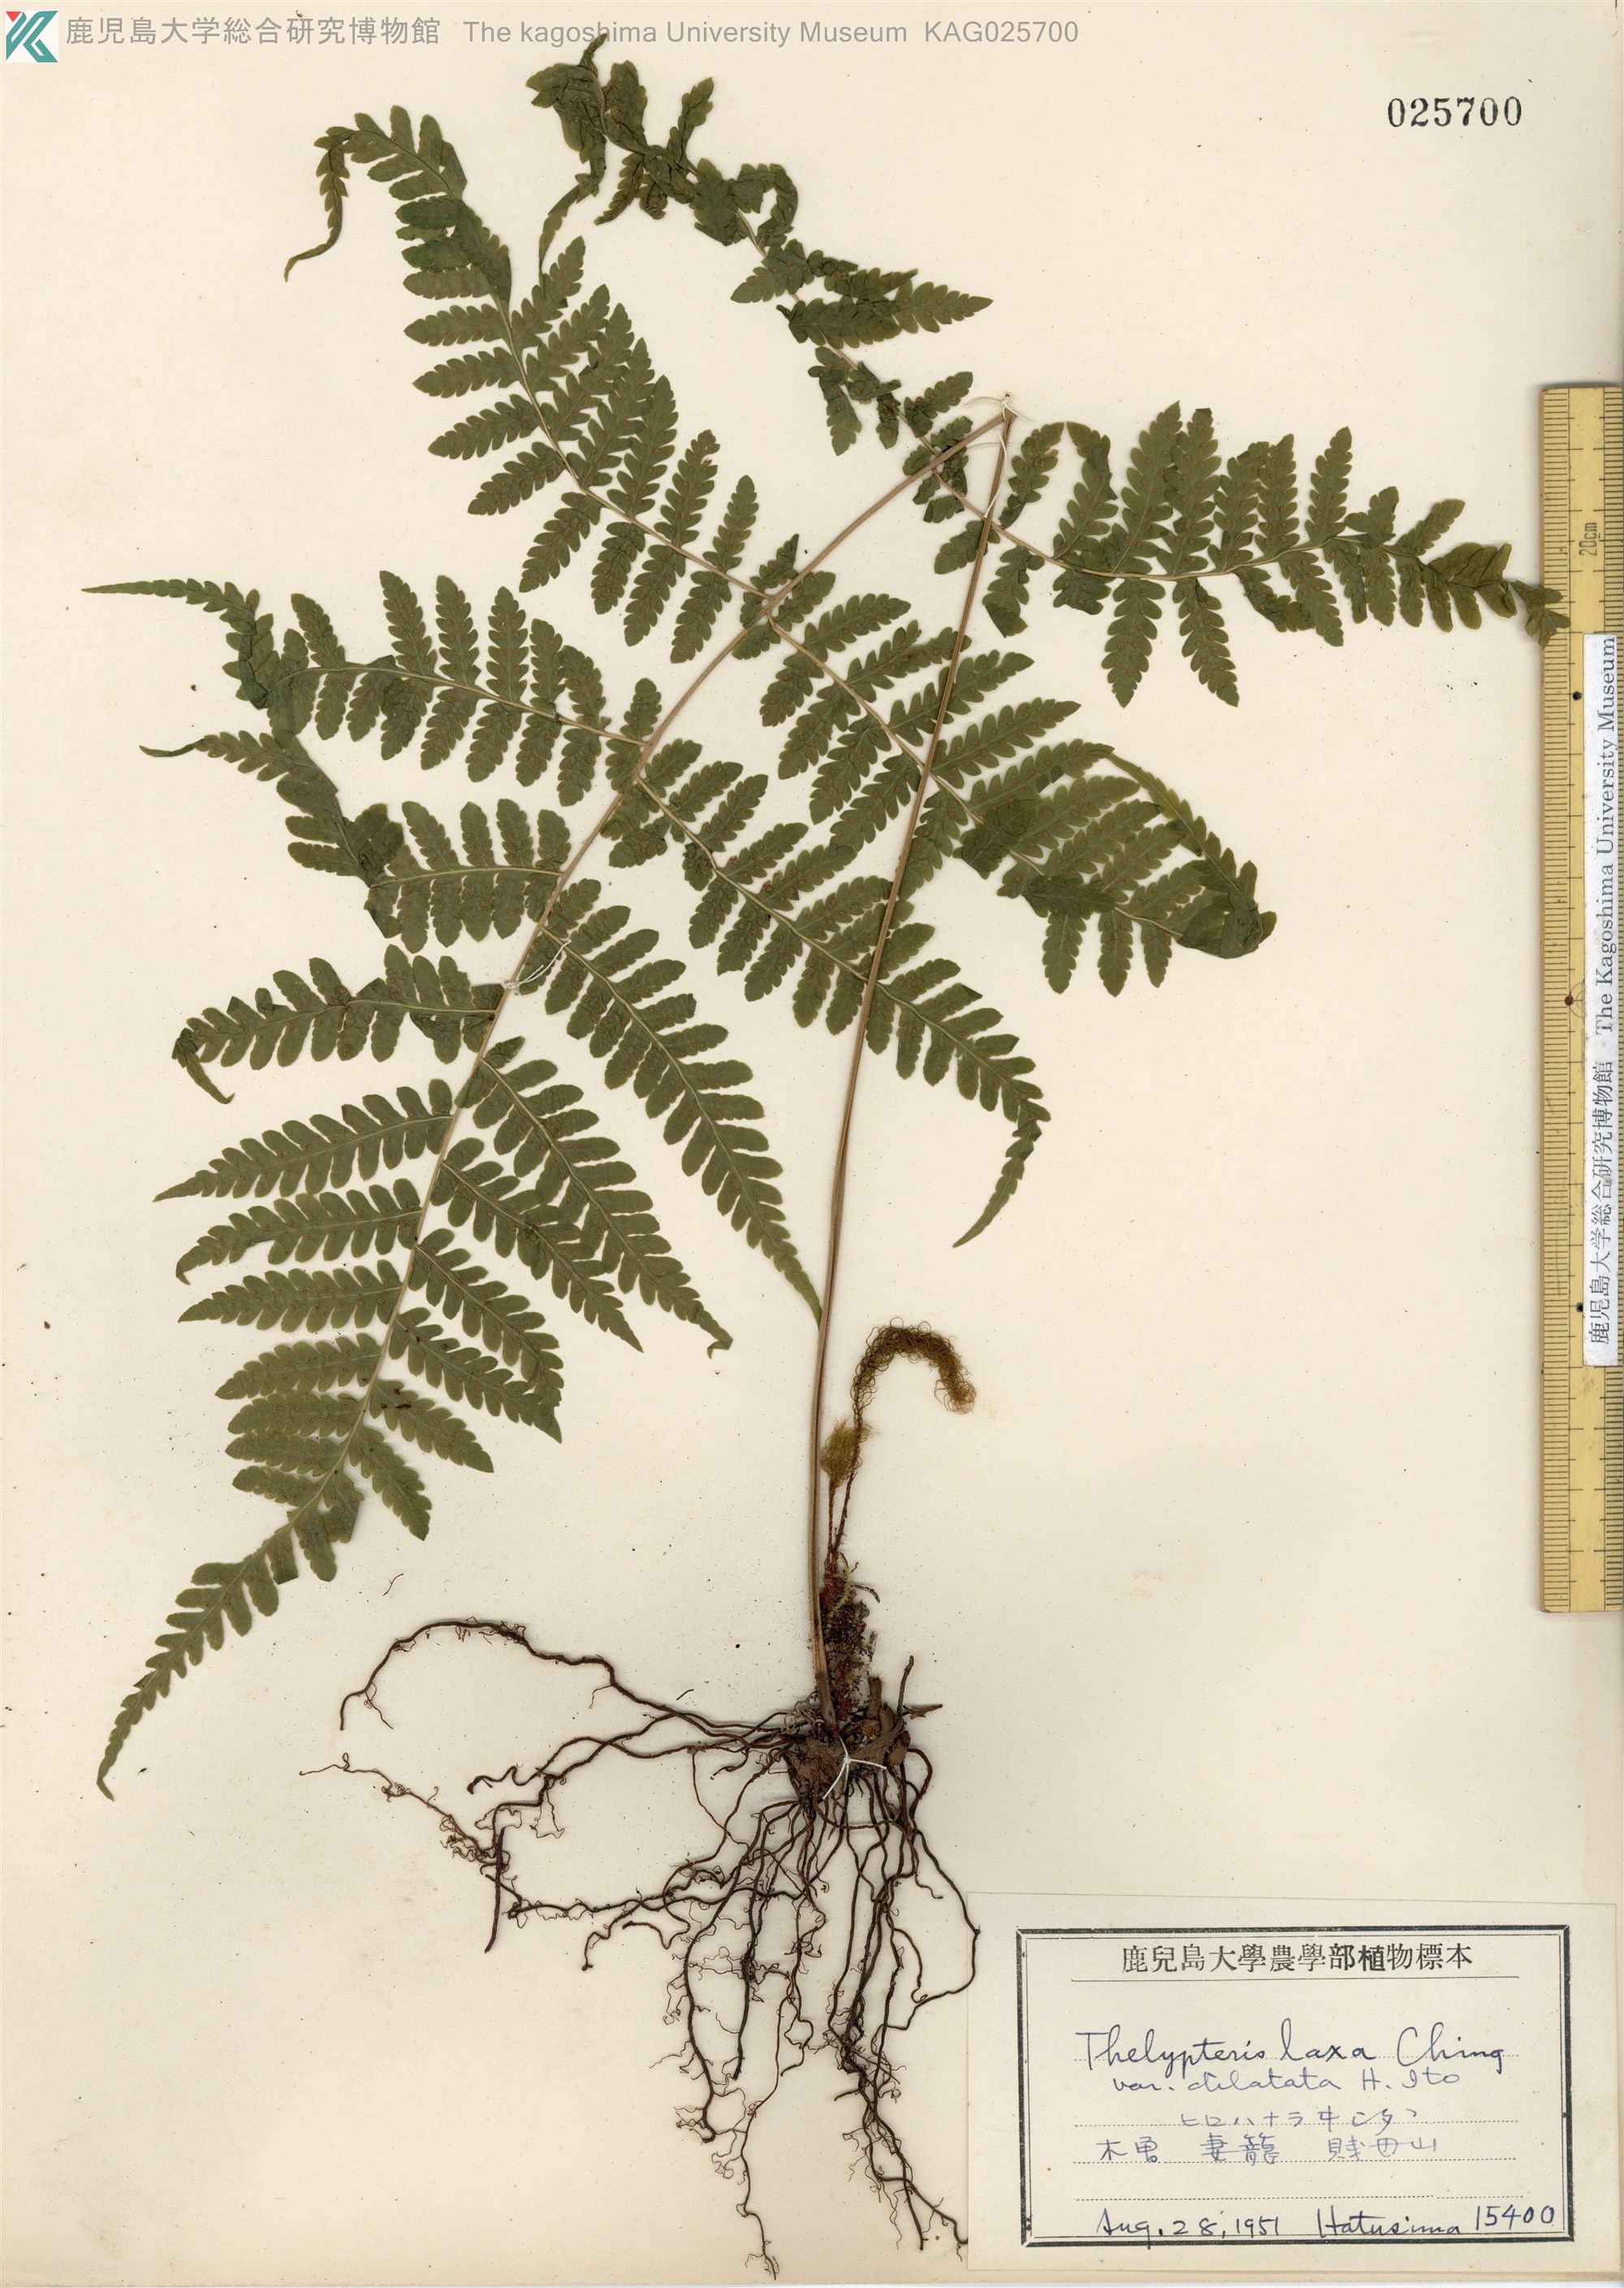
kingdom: Plantae
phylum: Tracheophyta
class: Polypodiopsida
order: Polypodiales
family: Thelypteridaceae
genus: Metathelypteris
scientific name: Metathelypteris hattori
